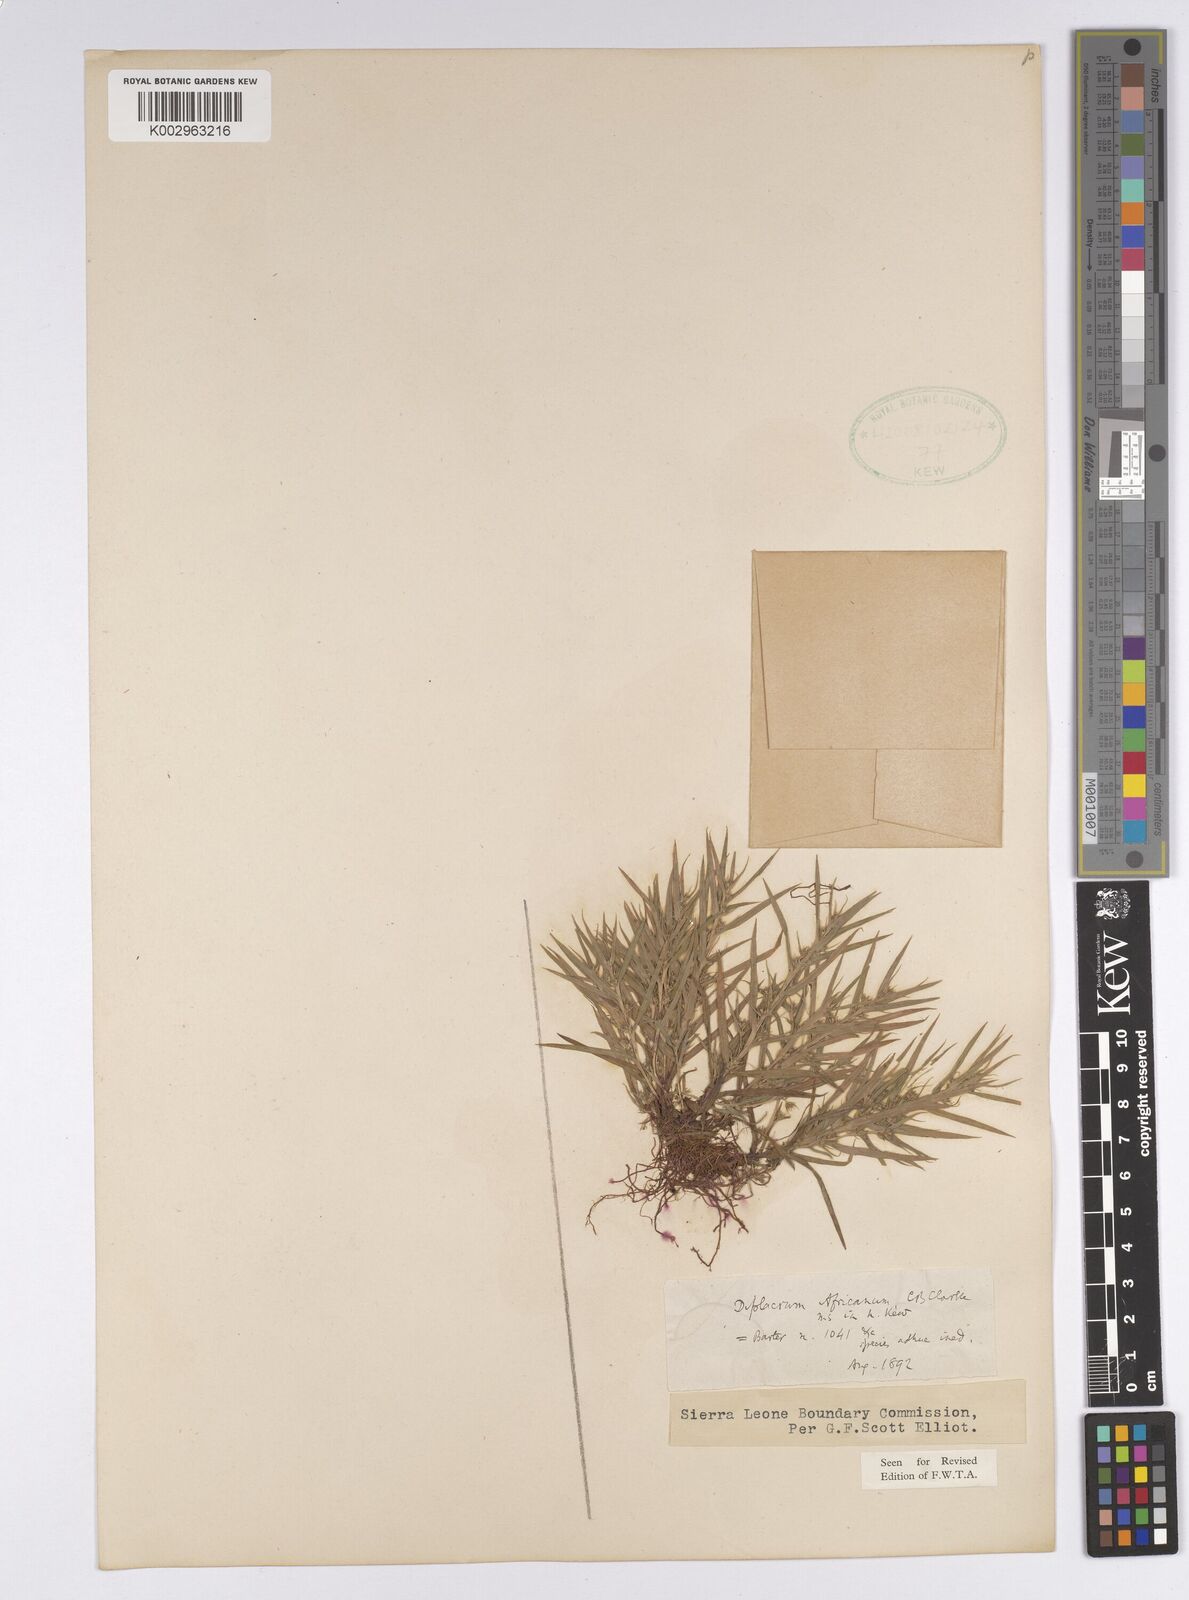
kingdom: Plantae
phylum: Tracheophyta
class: Liliopsida
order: Poales
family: Cyperaceae
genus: Diplacrum
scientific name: Diplacrum africanum
